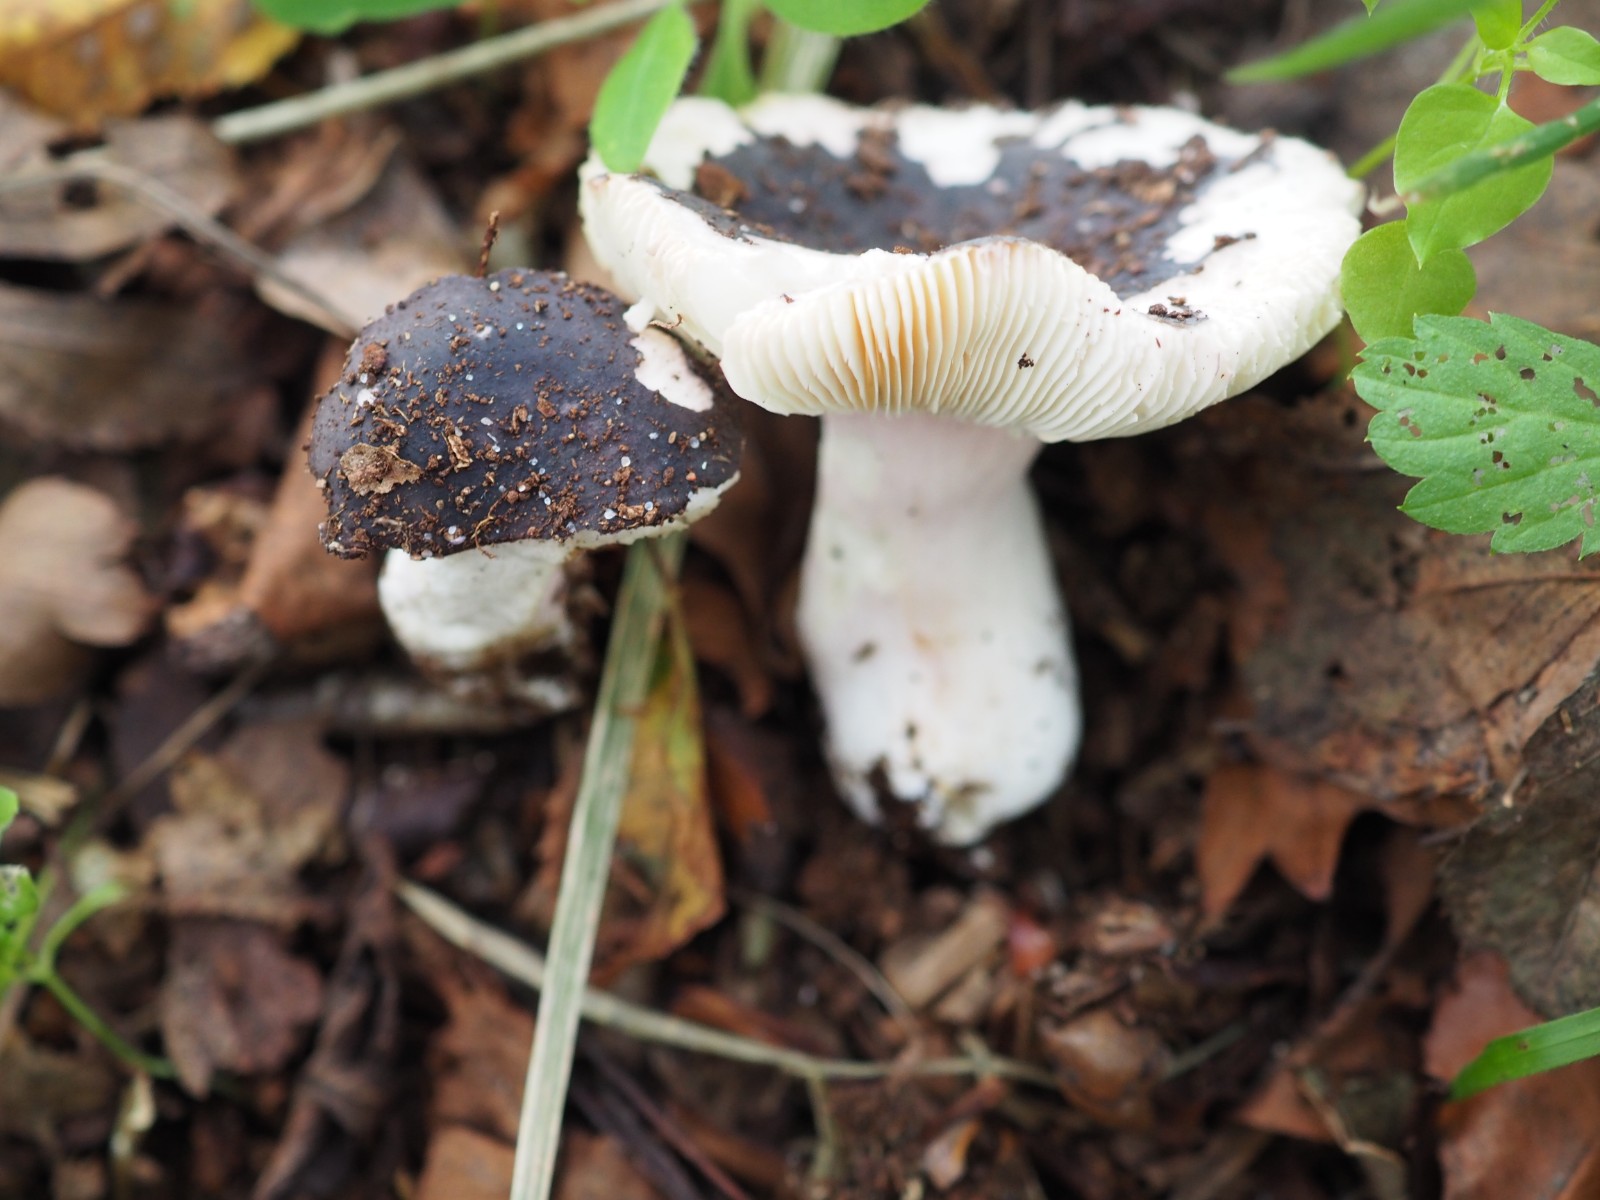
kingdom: Fungi
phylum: Basidiomycota
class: Agaricomycetes
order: Russulales
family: Russulaceae
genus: Russula
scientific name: Russula
